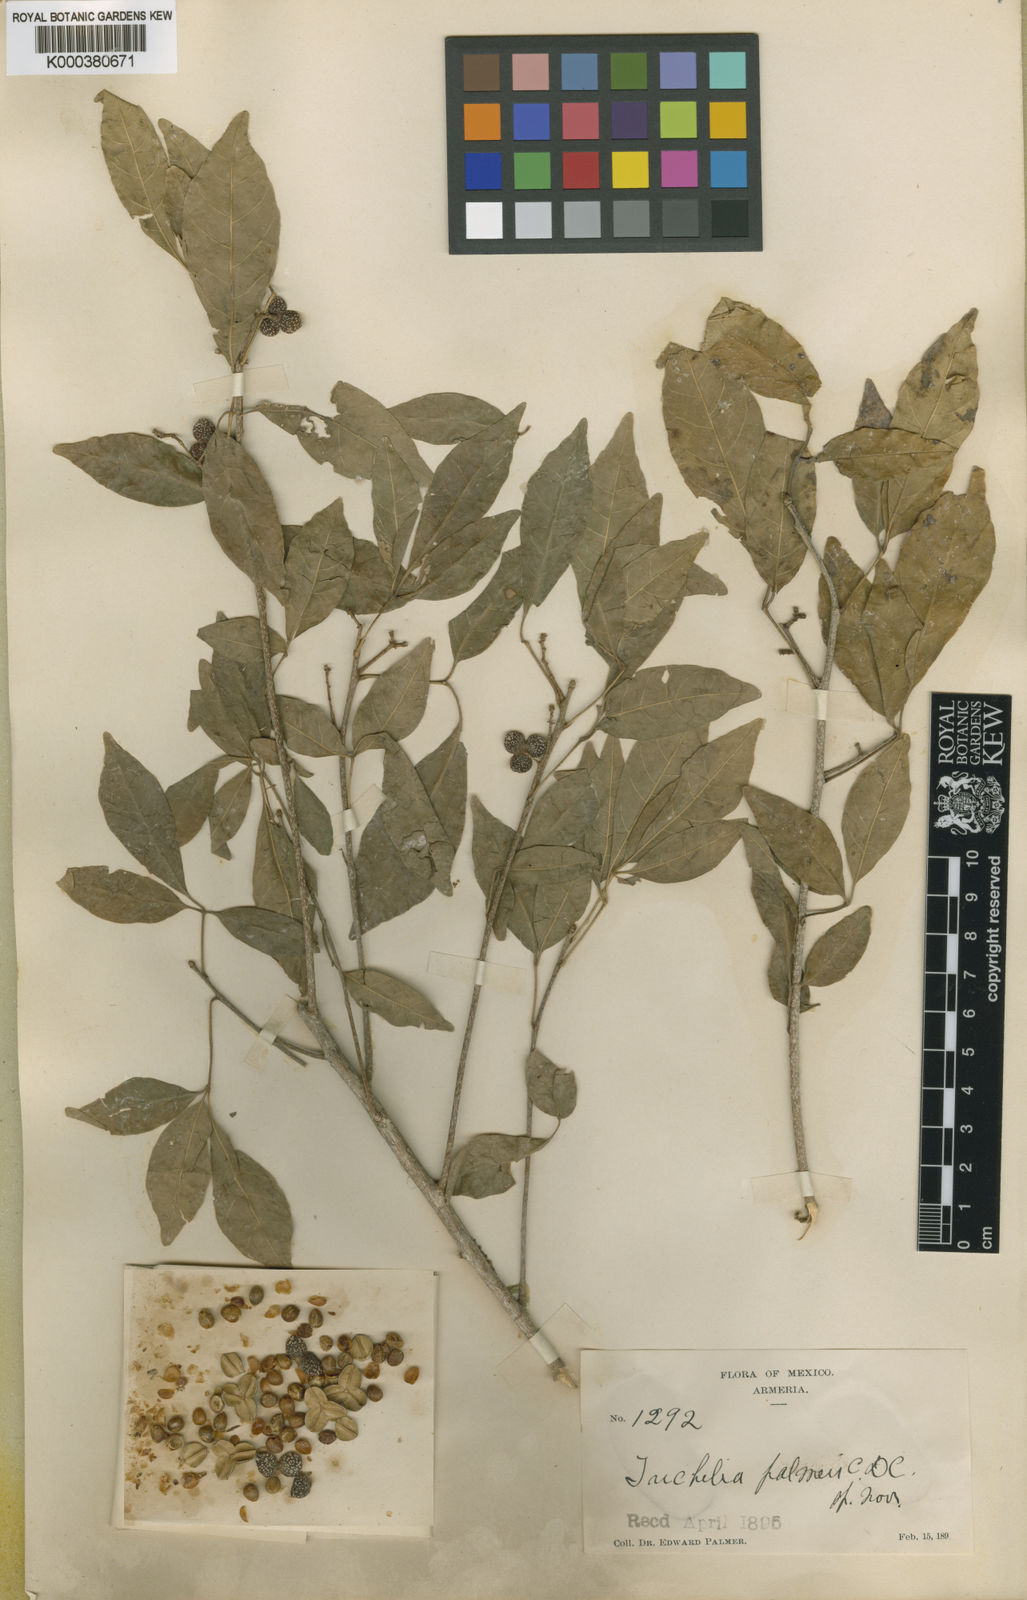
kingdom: Plantae
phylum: Tracheophyta
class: Magnoliopsida
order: Sapindales
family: Meliaceae
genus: Trichilia
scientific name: Trichilia trifolia
